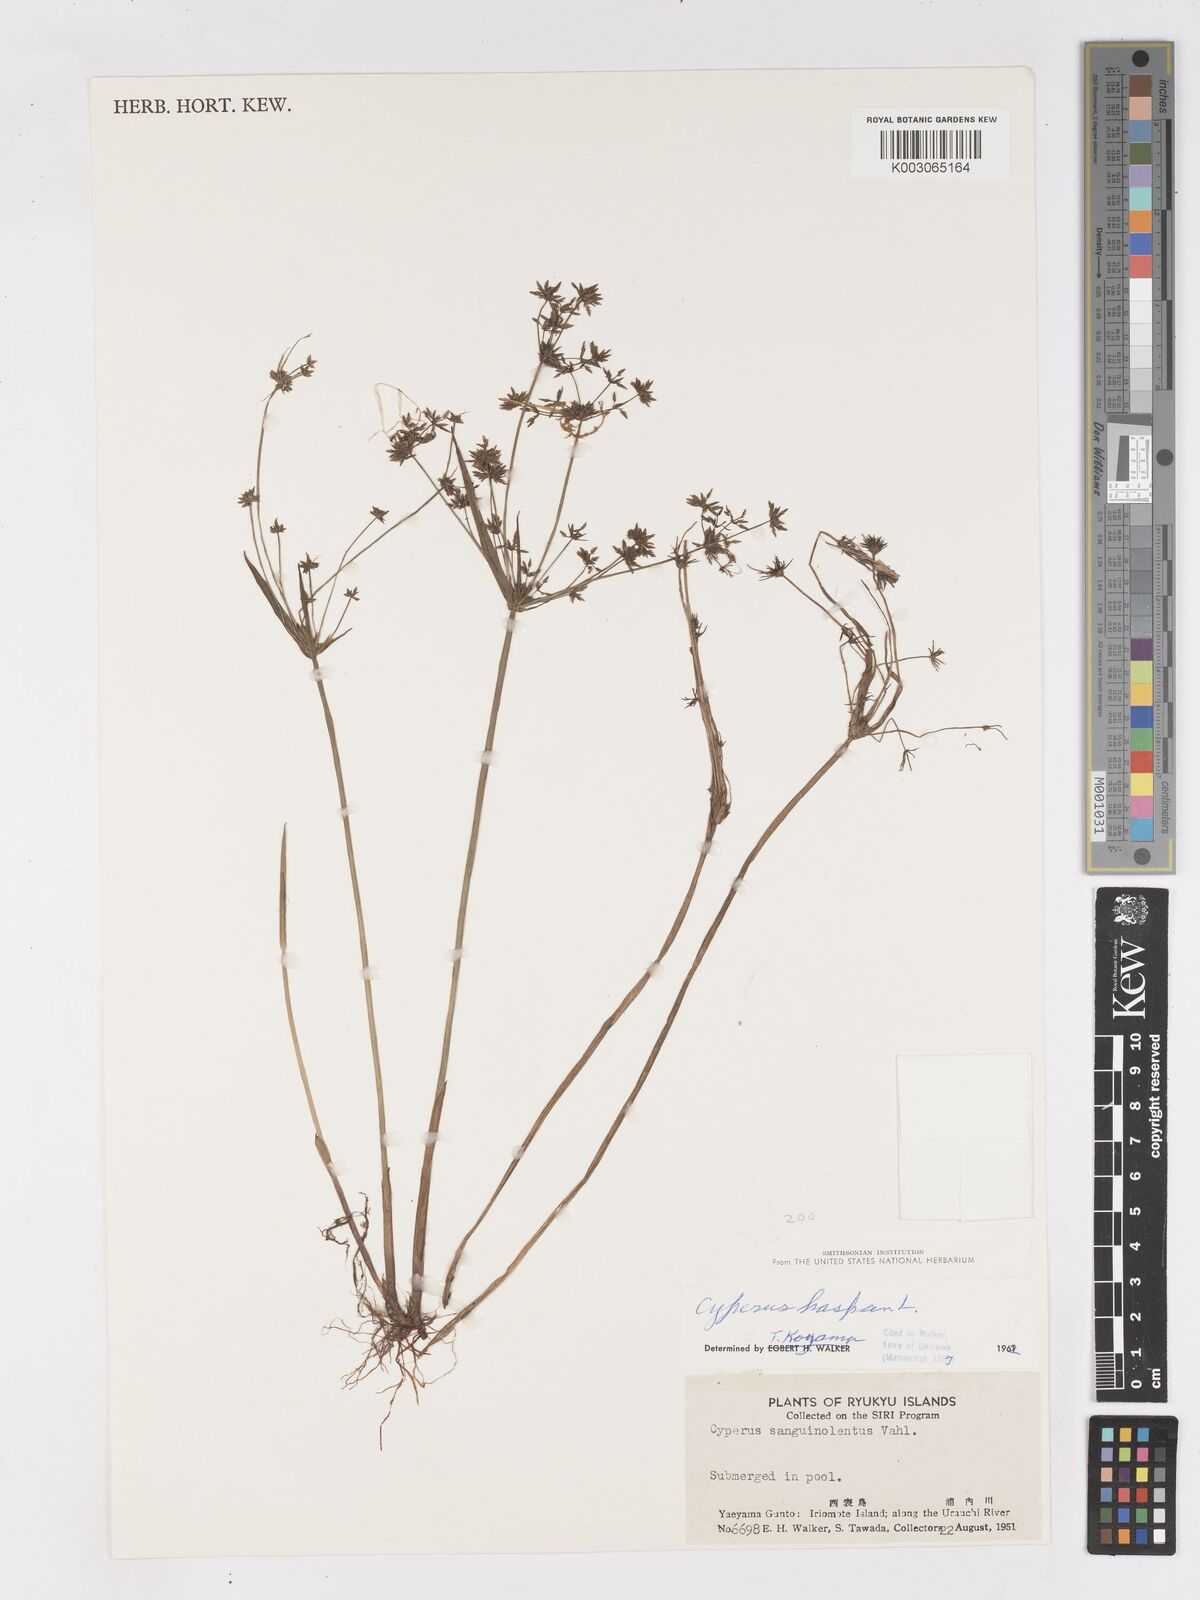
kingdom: Plantae
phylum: Tracheophyta
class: Liliopsida
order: Poales
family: Cyperaceae
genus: Cyperus
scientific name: Cyperus haspan
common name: Haspan flatsedge
